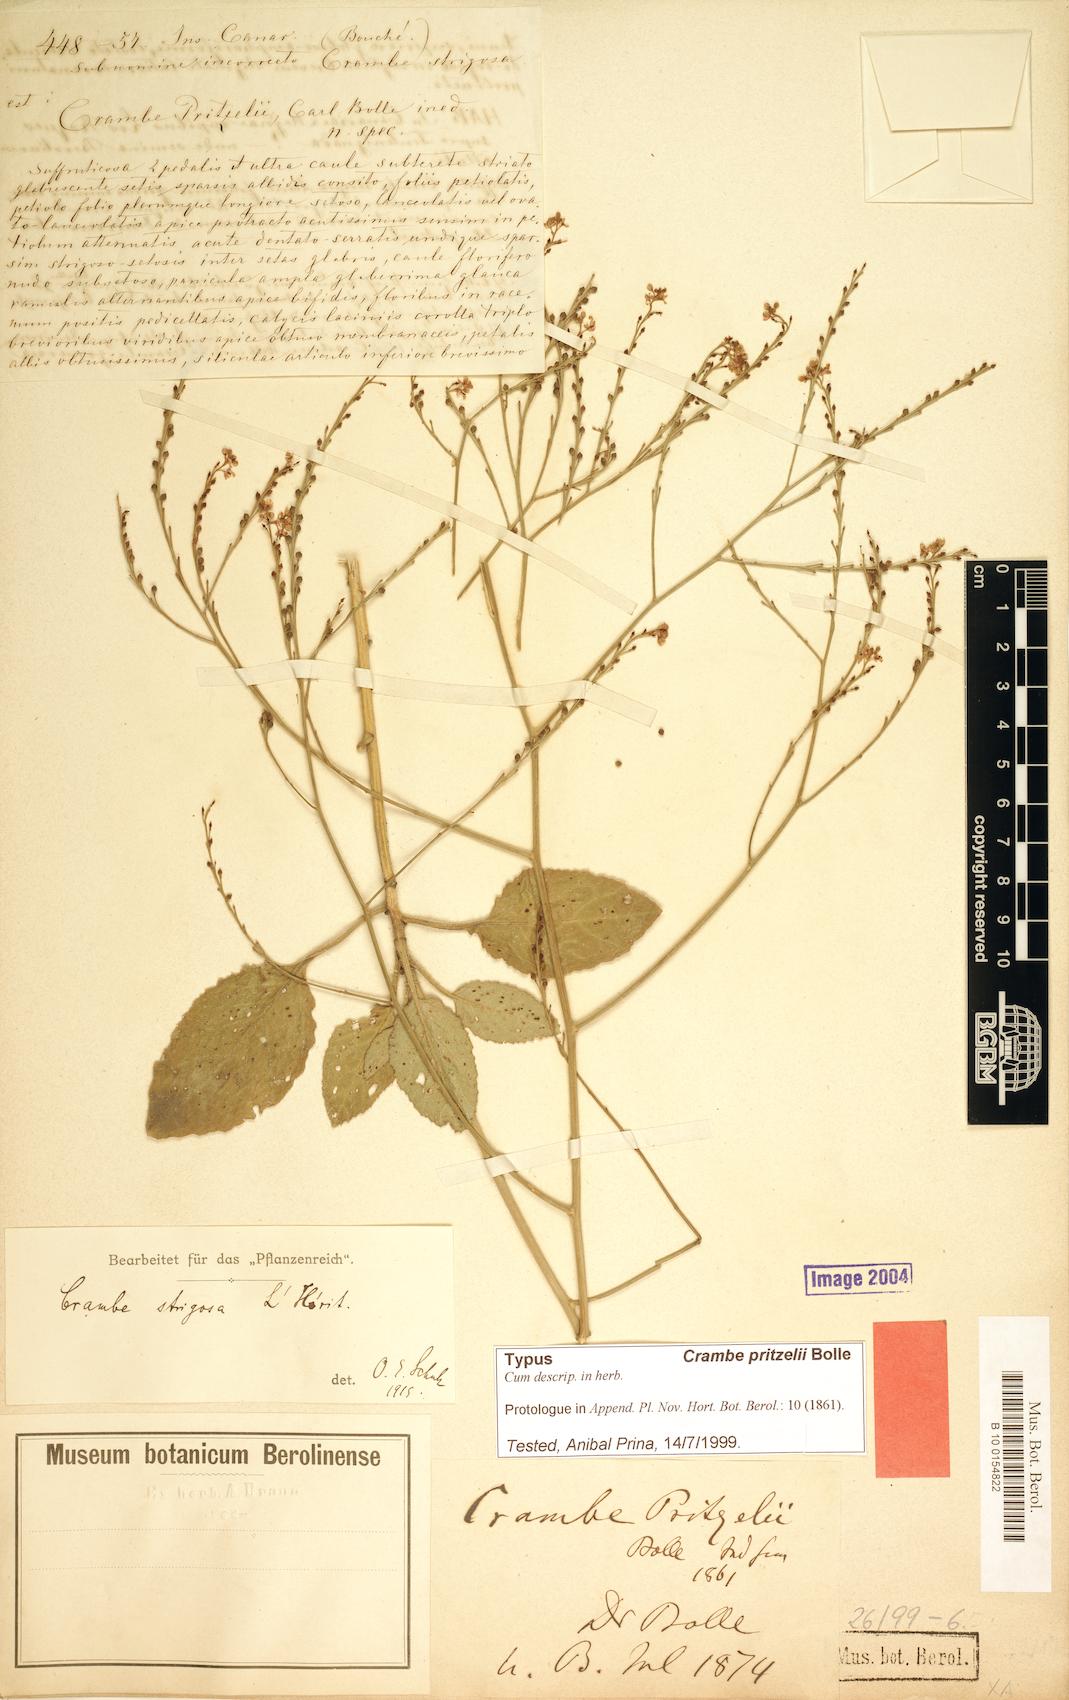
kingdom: Plantae
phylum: Tracheophyta
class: Magnoliopsida
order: Brassicales
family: Brassicaceae
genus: Crambe
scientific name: Crambe pritzelii
